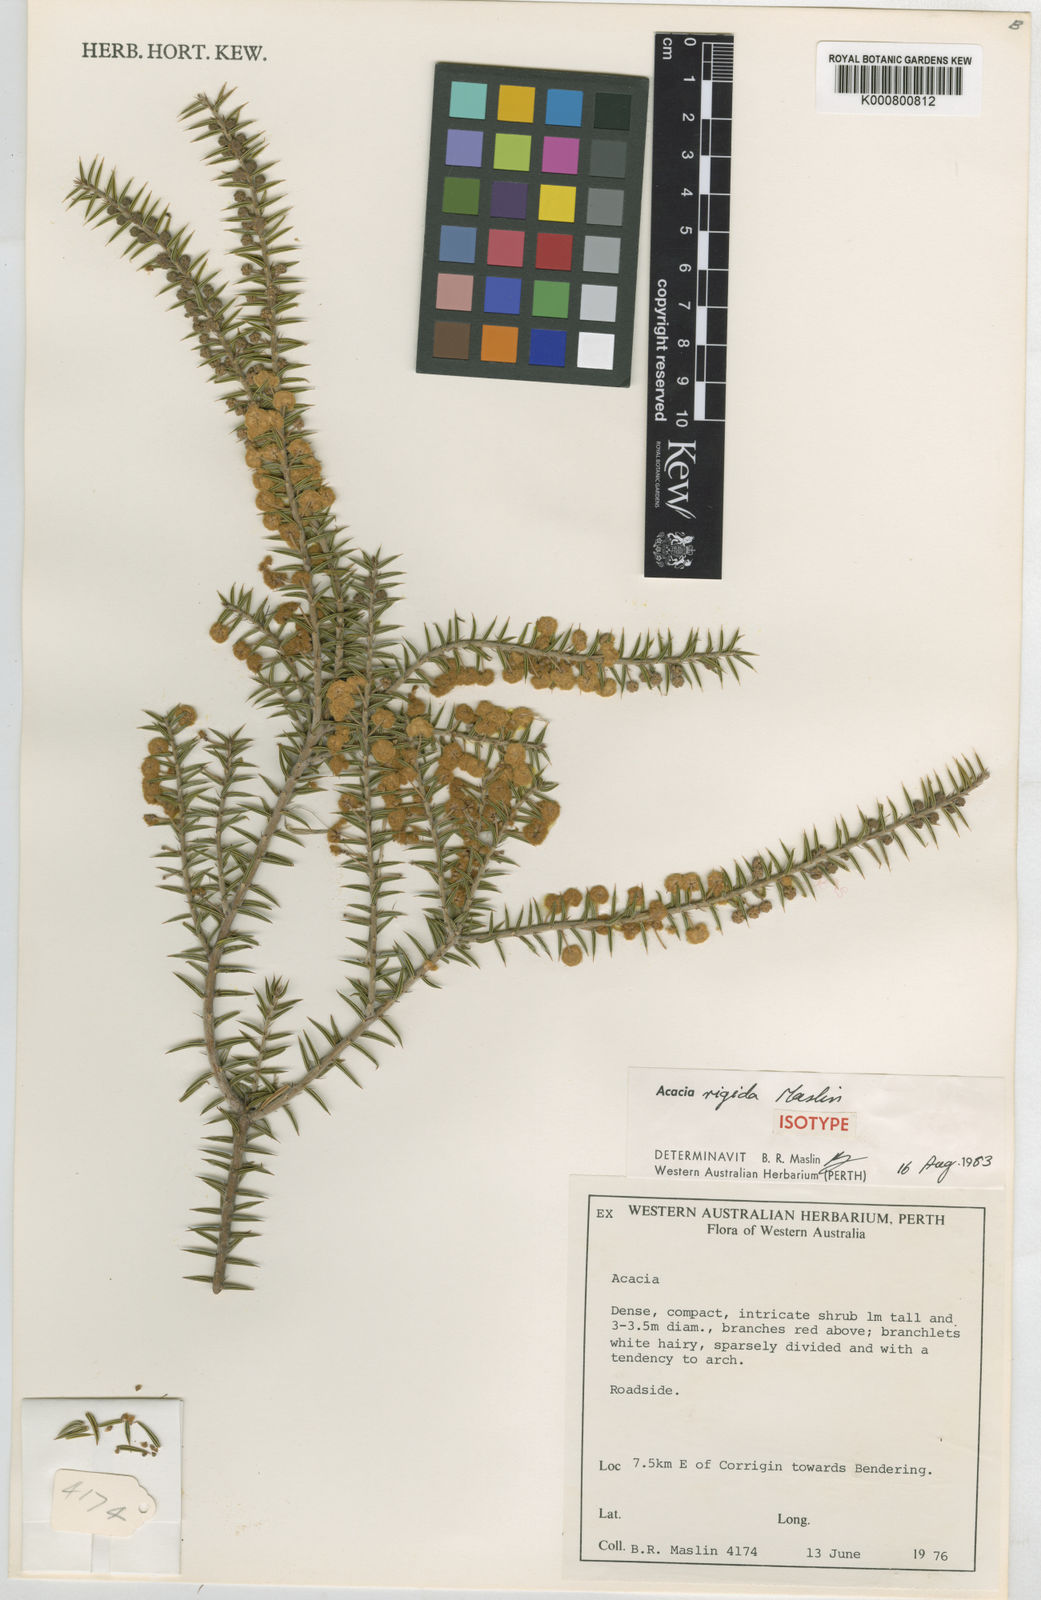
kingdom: Plantae
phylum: Tracheophyta
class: Magnoliopsida
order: Fabales
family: Fabaceae
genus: Acacia
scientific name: Acacia neorigida
